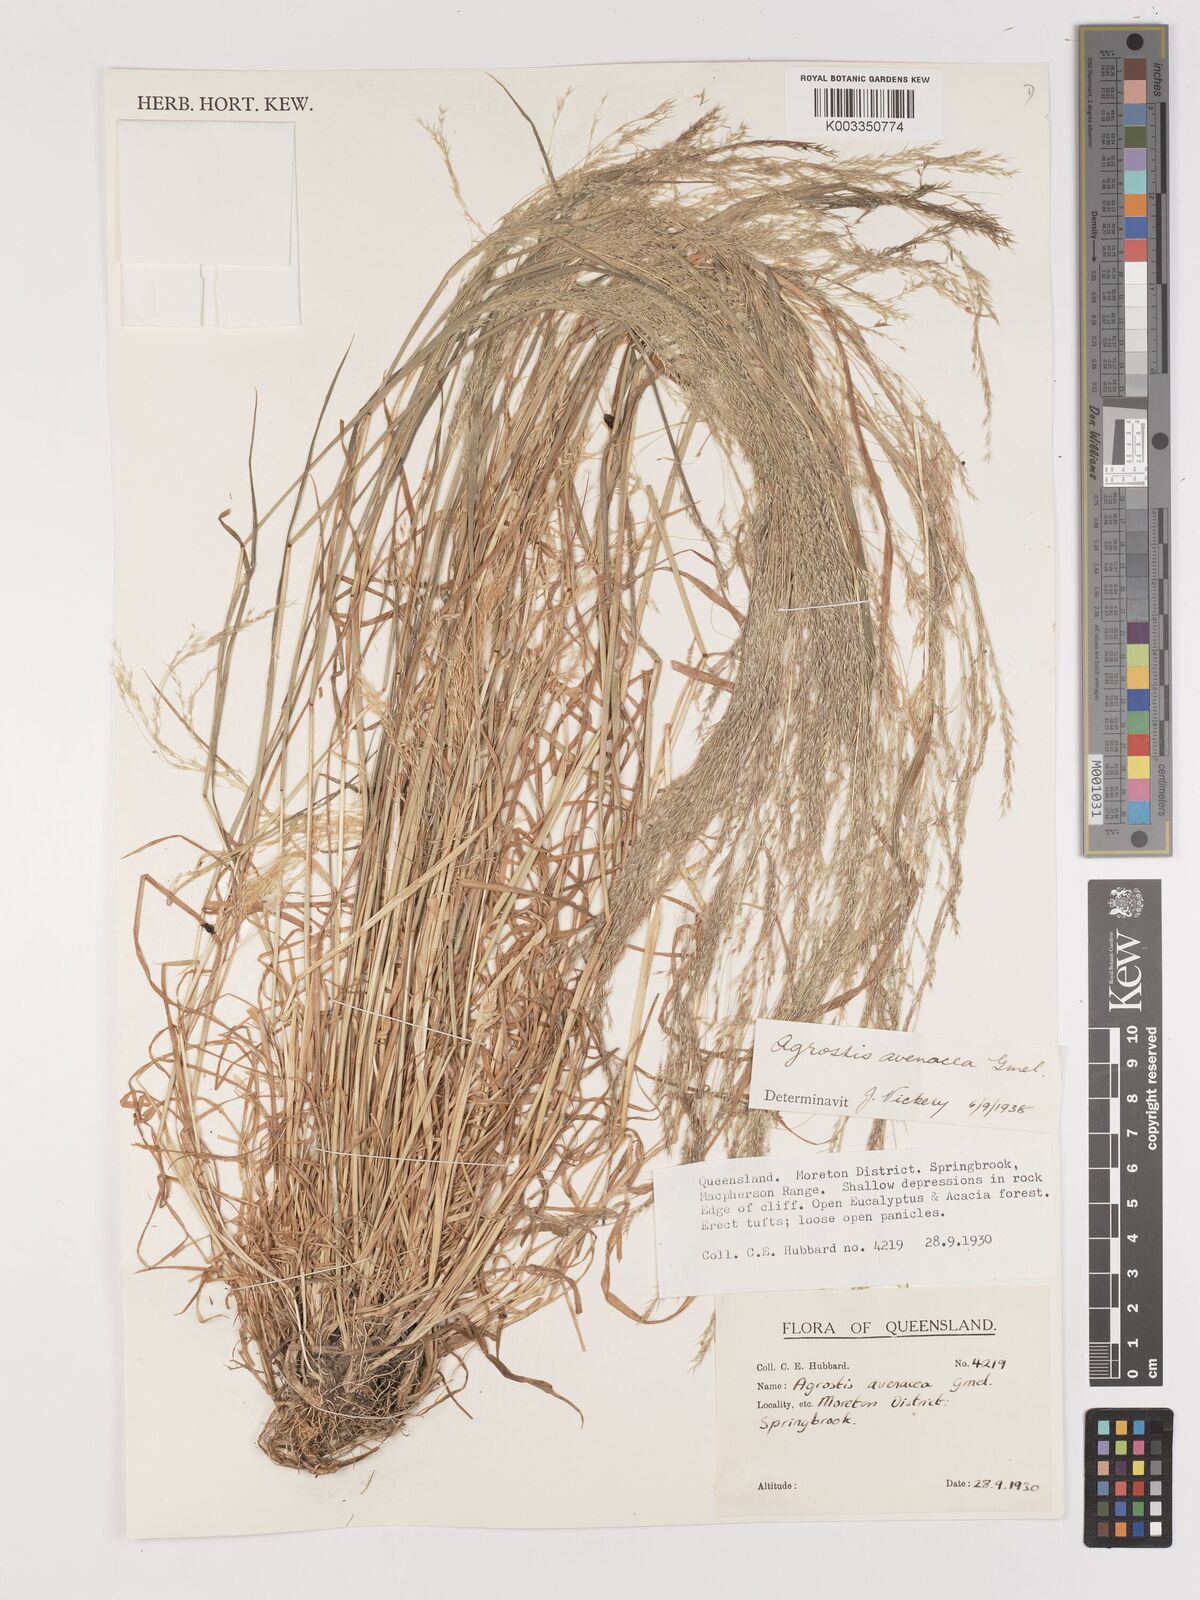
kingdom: Plantae
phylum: Tracheophyta
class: Liliopsida
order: Poales
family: Poaceae
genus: Lachnagrostis
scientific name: Lachnagrostis filiformis
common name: Bentgrass
